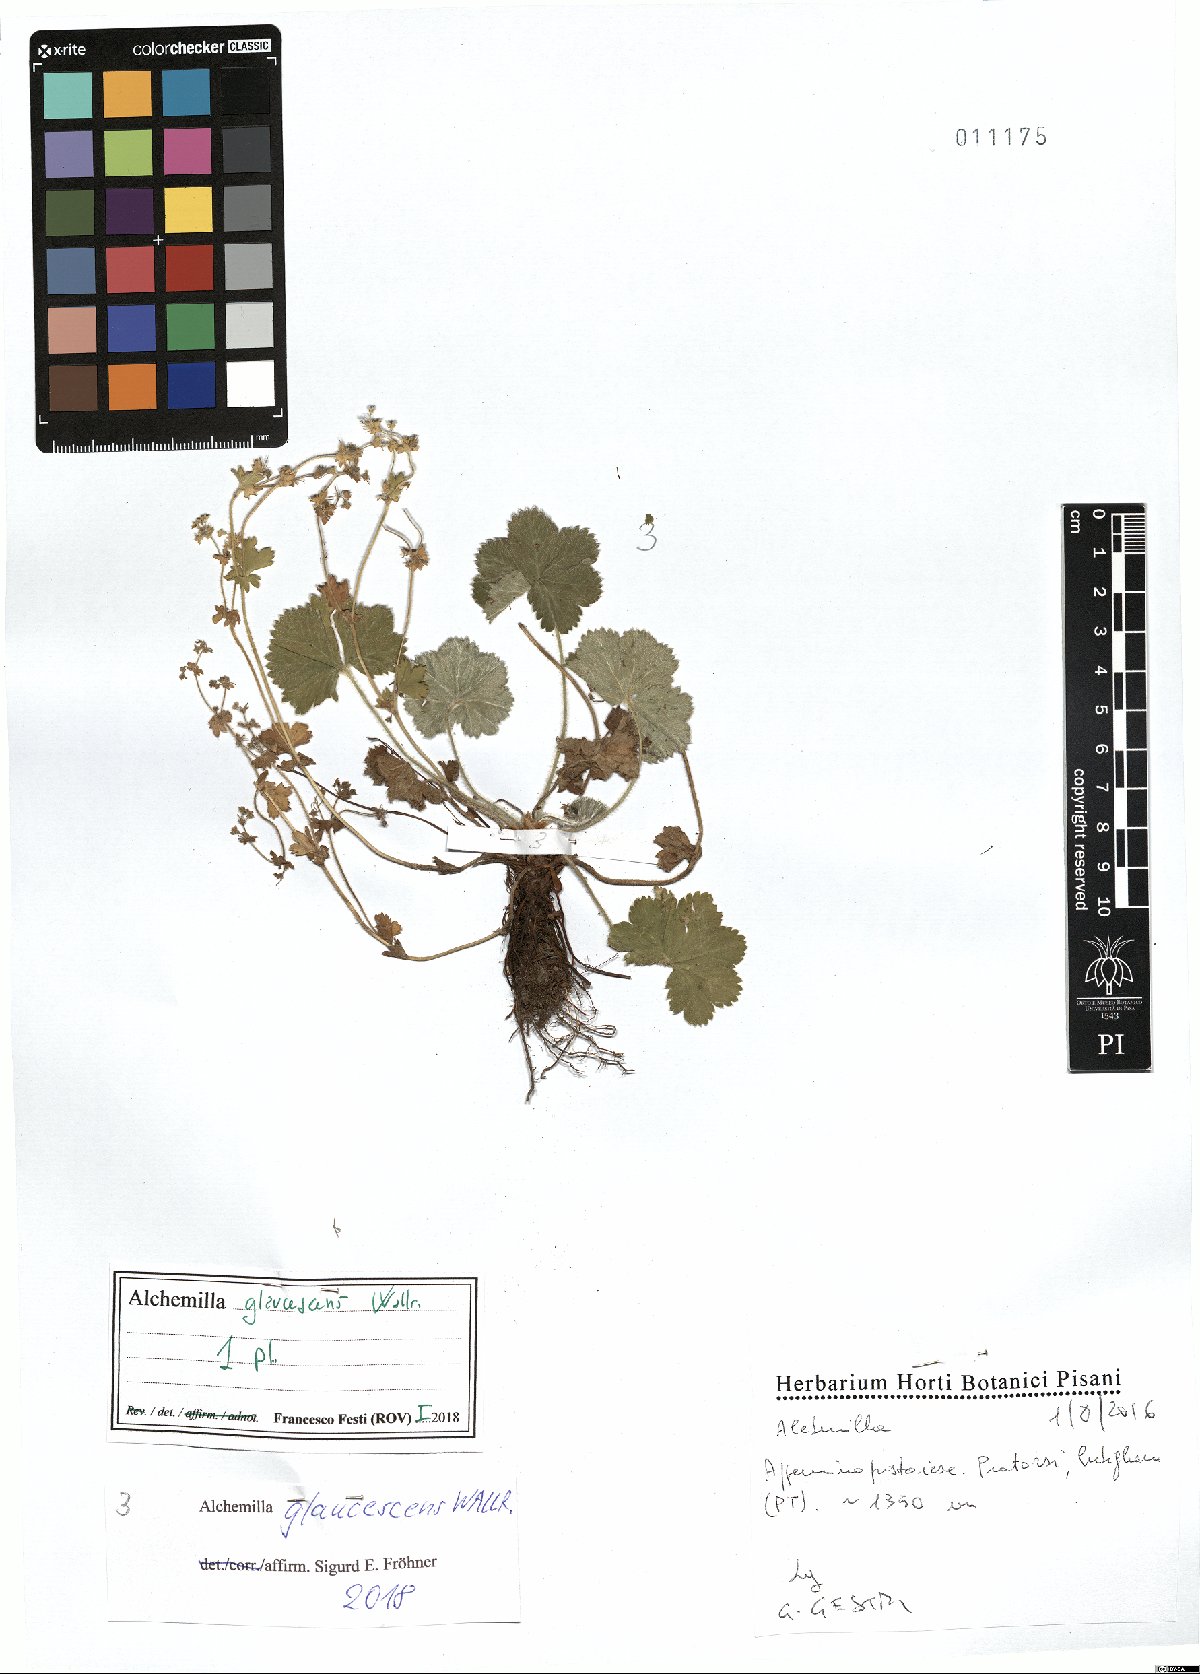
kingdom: Plantae
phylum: Tracheophyta
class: Magnoliopsida
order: Rosales
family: Rosaceae
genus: Alchemilla
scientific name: Alchemilla glaucescens
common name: Silky lady's mantle
